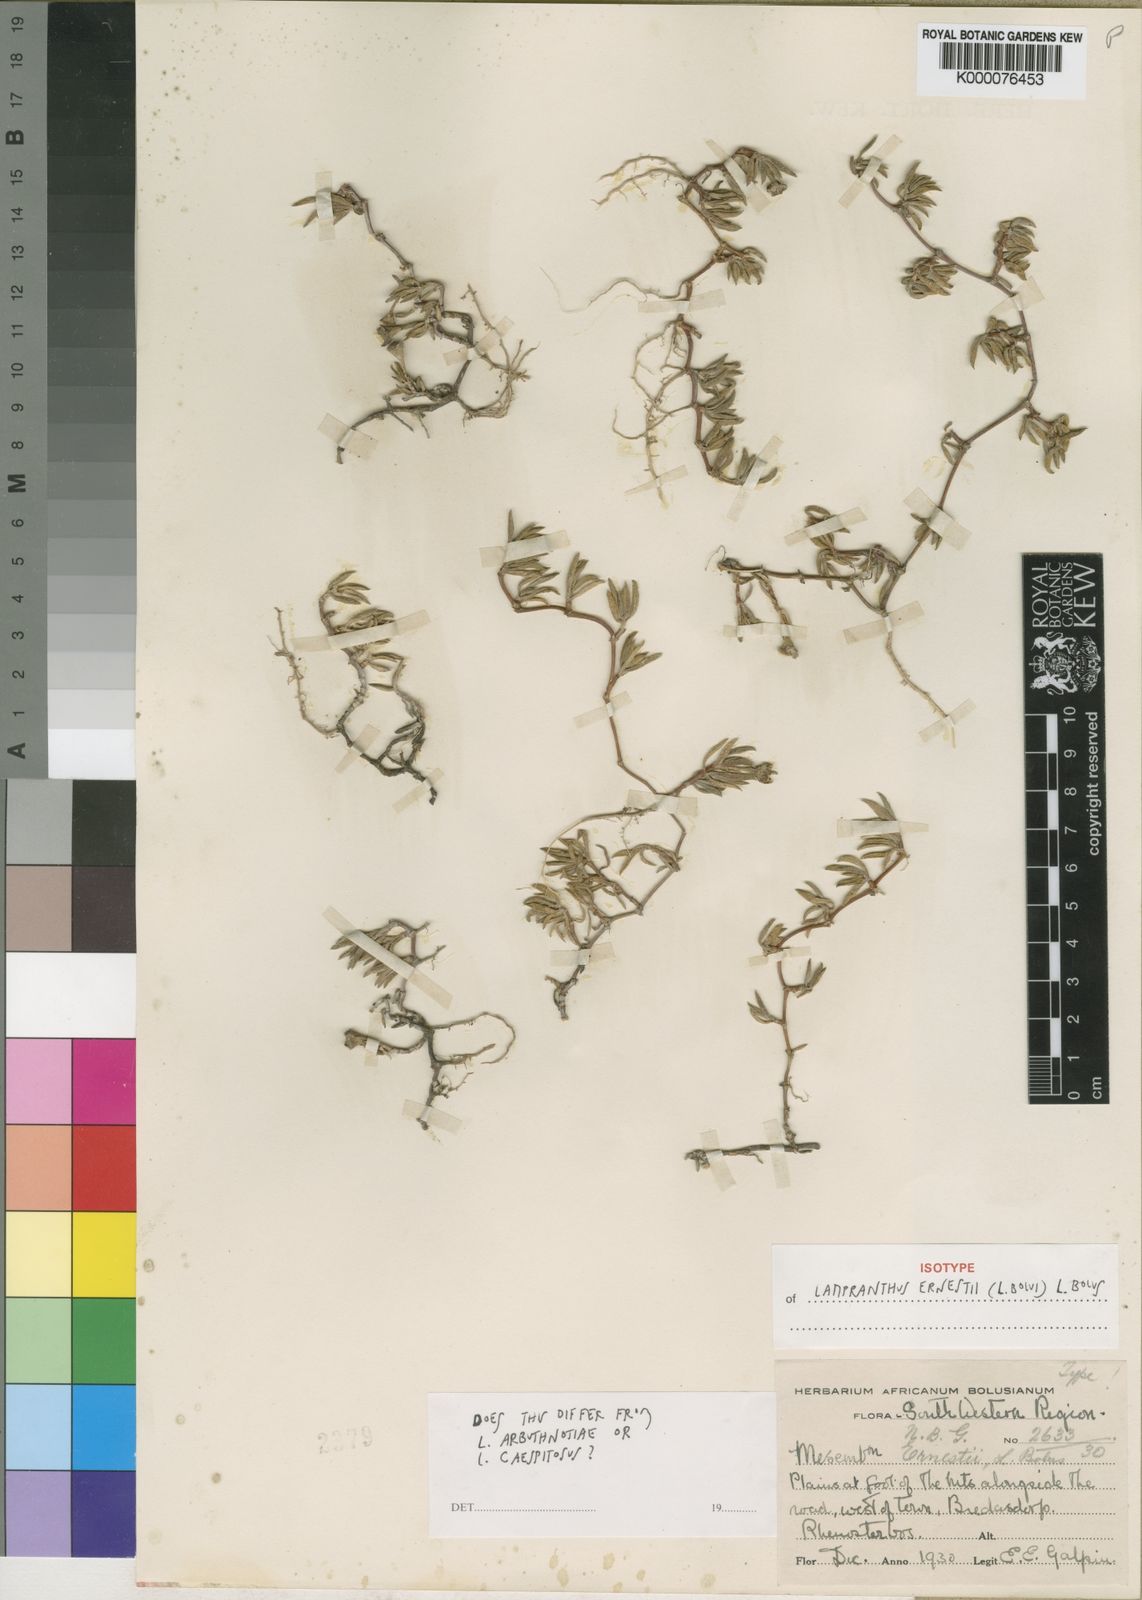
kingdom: Plantae
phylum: Tracheophyta
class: Magnoliopsida
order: Caryophyllales
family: Aizoaceae
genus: Lampranthus
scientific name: Lampranthus ernestii
